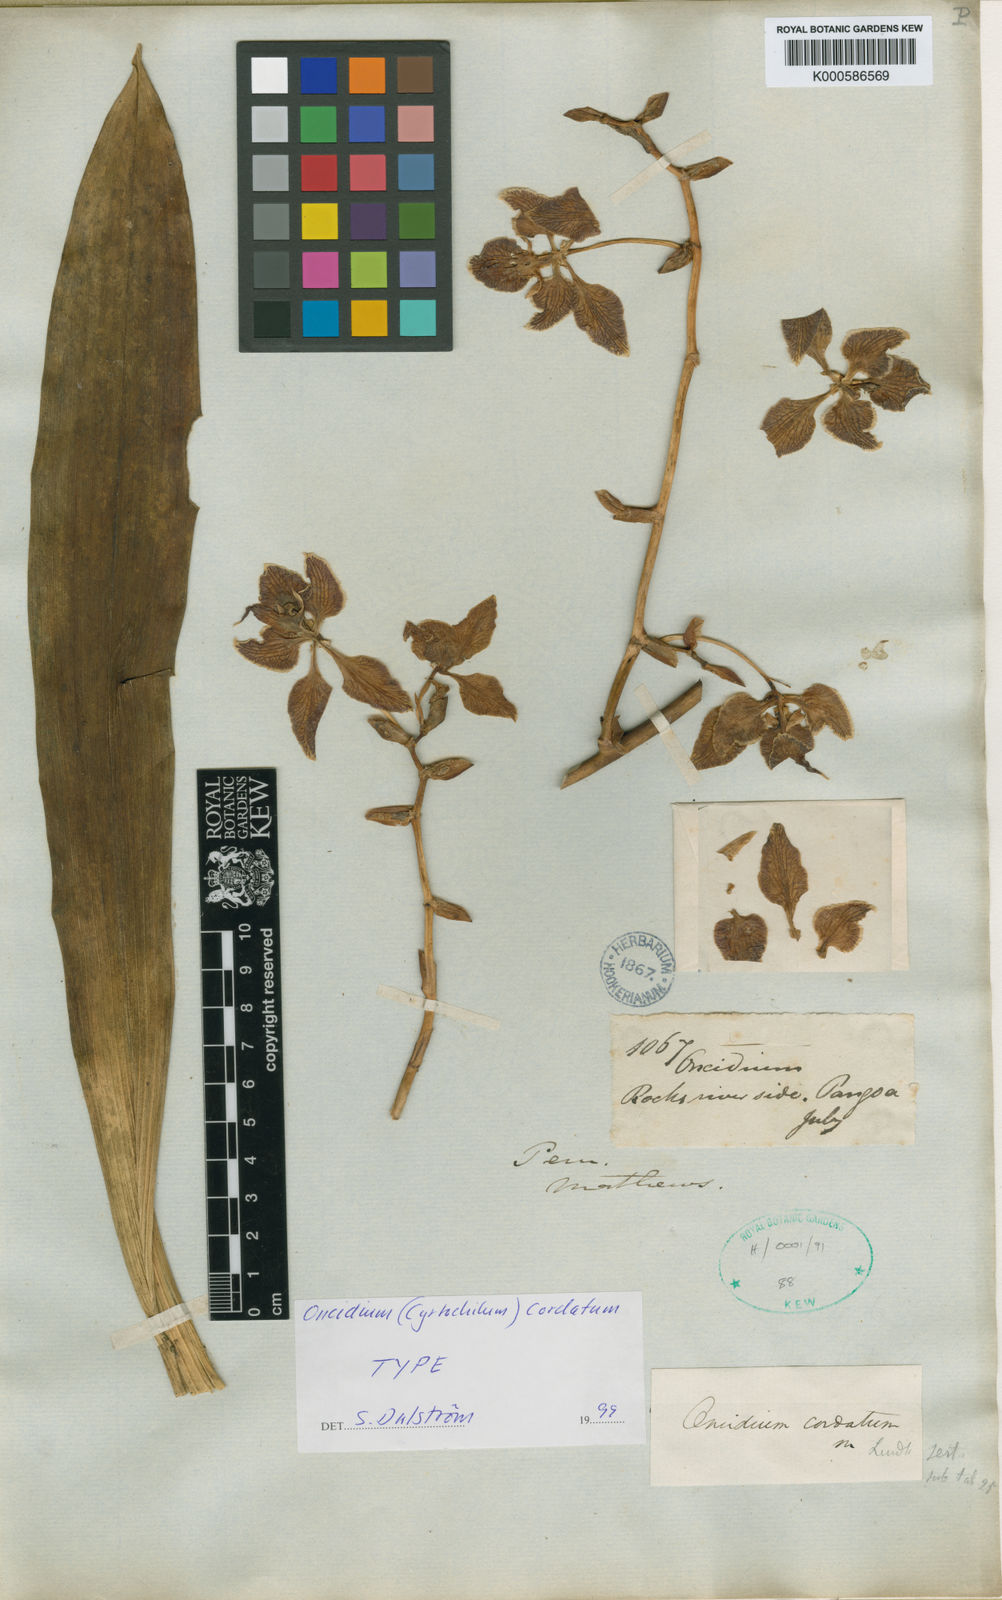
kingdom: Plantae
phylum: Tracheophyta
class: Liliopsida
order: Asparagales
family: Orchidaceae
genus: Cyrtochilum
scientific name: Cyrtochilum cordatum
